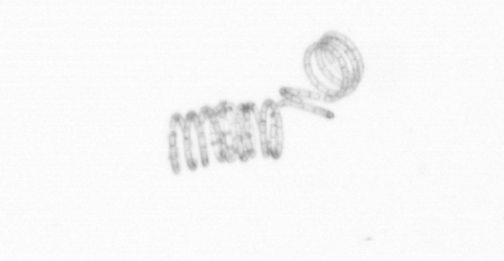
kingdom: Chromista
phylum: Ochrophyta
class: Bacillariophyceae
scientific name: Bacillariophyceae
